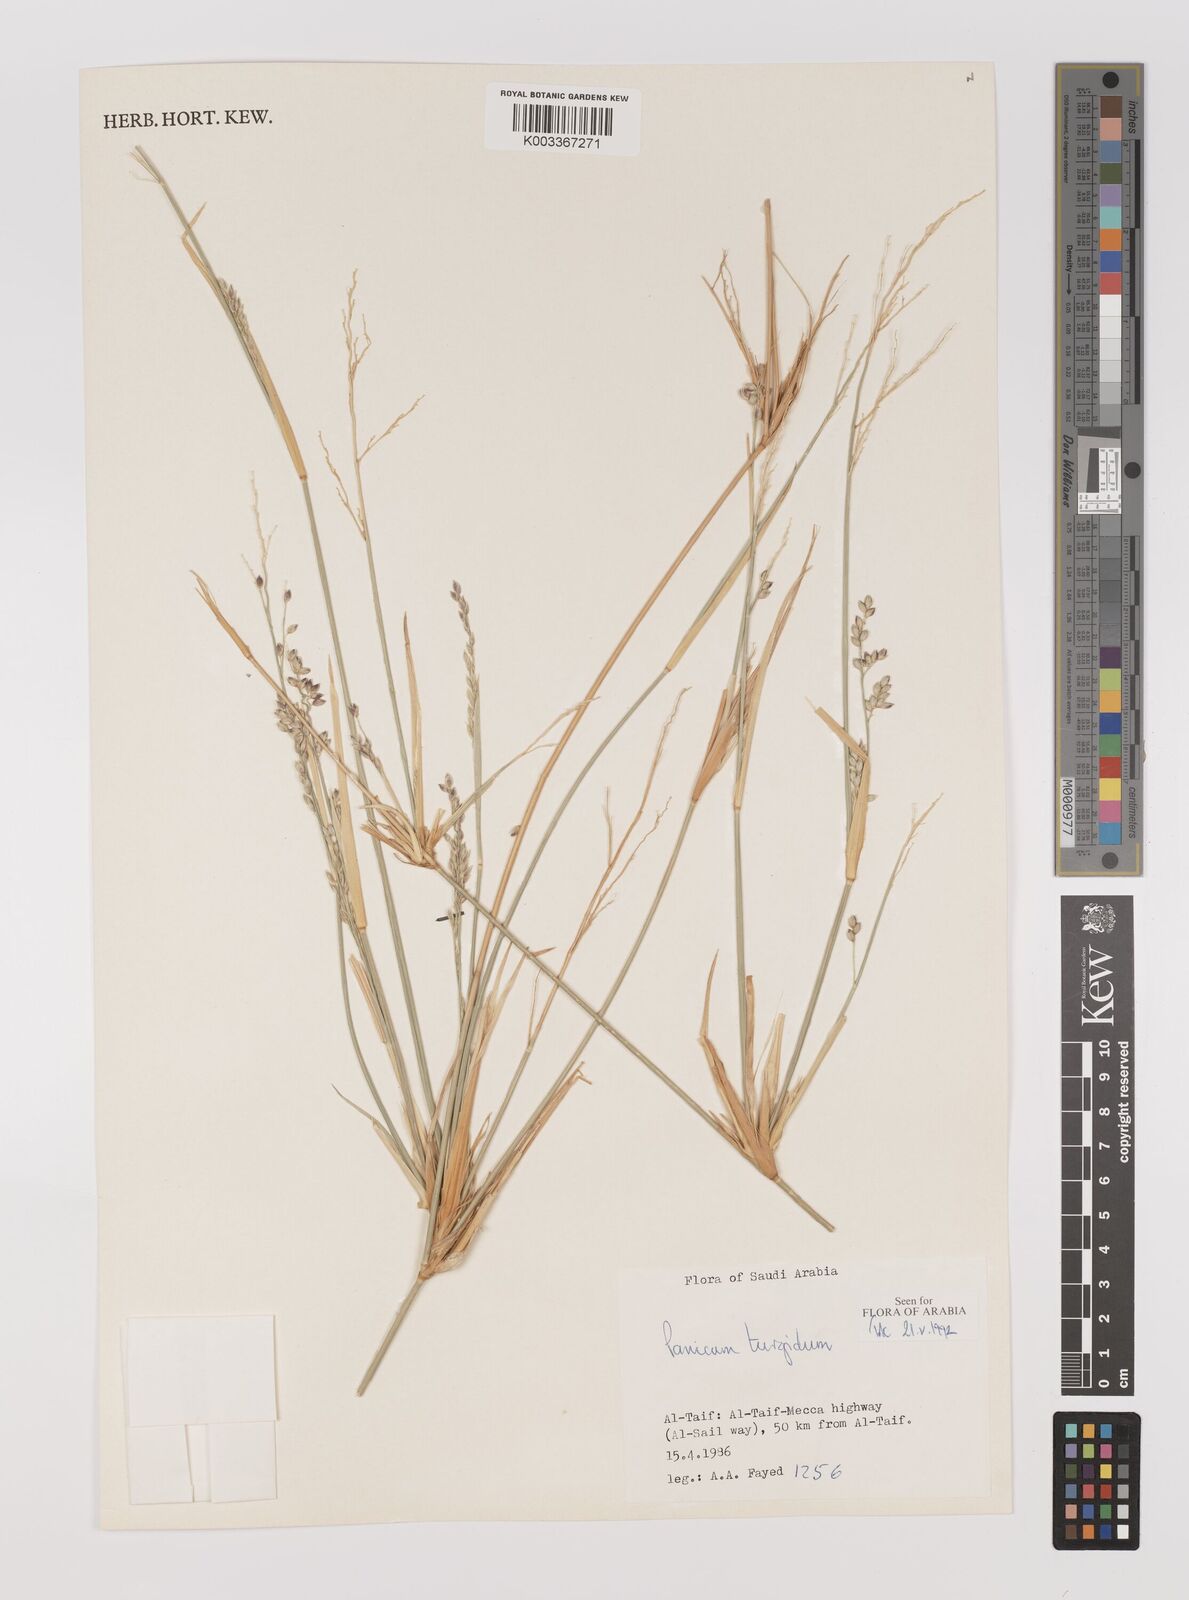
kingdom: Plantae
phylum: Tracheophyta
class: Liliopsida
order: Poales
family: Poaceae
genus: Panicum
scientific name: Panicum turgidum
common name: Desert grass
